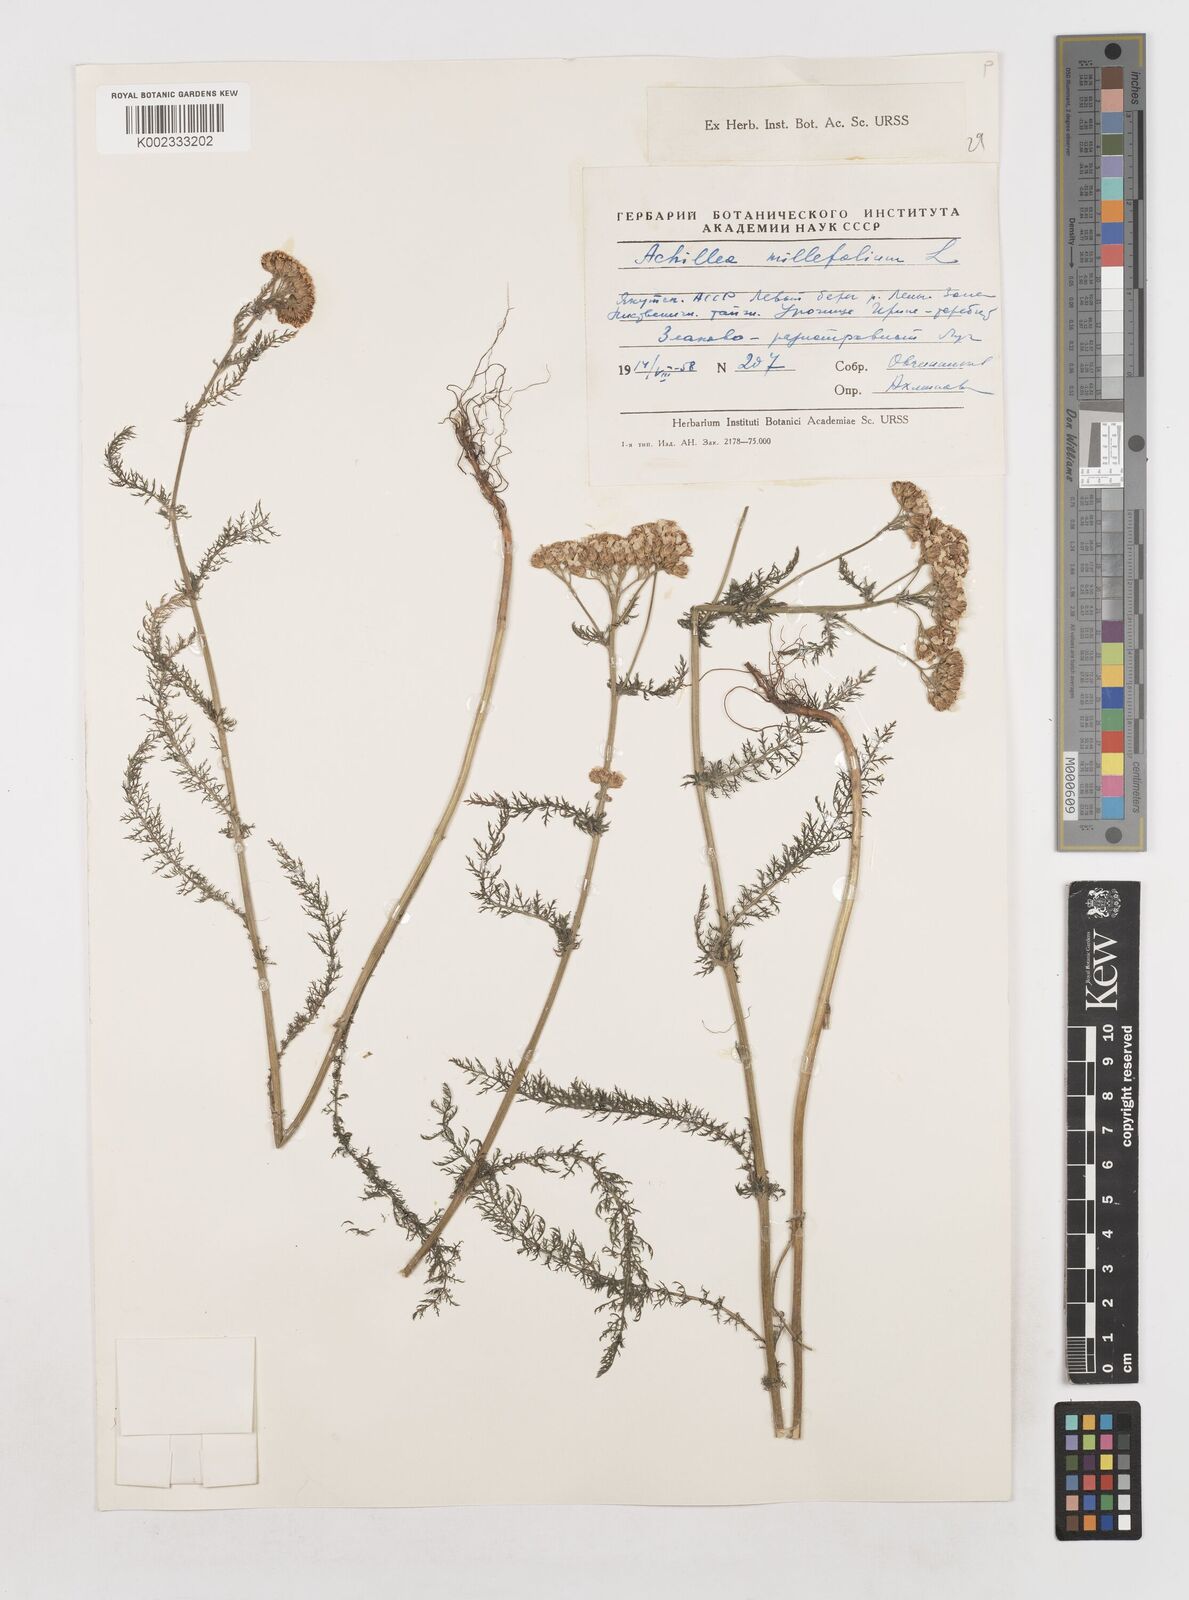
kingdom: Plantae
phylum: Tracheophyta
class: Magnoliopsida
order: Asterales
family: Asteraceae
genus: Achillea
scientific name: Achillea millefolium
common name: Yarrow
